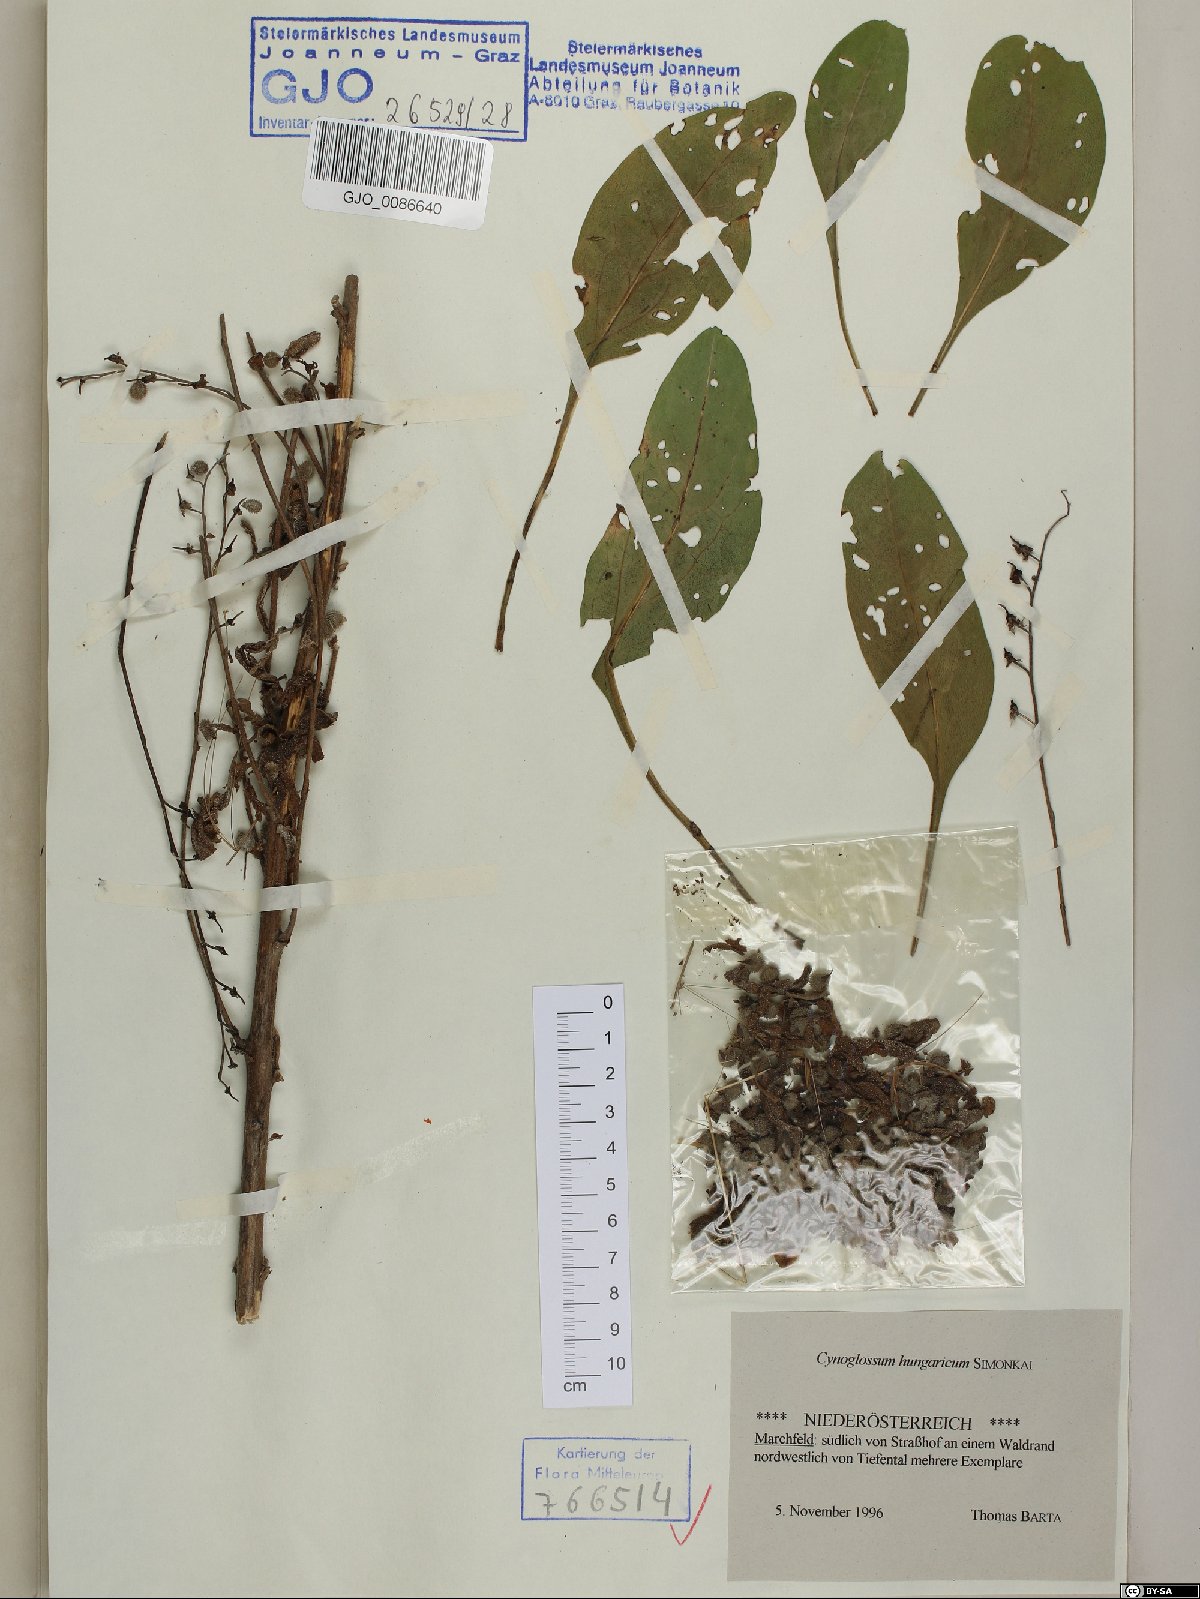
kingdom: Plantae
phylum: Tracheophyta
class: Magnoliopsida
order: Boraginales
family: Boraginaceae
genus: Cynoglossum
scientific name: Cynoglossum montanum
